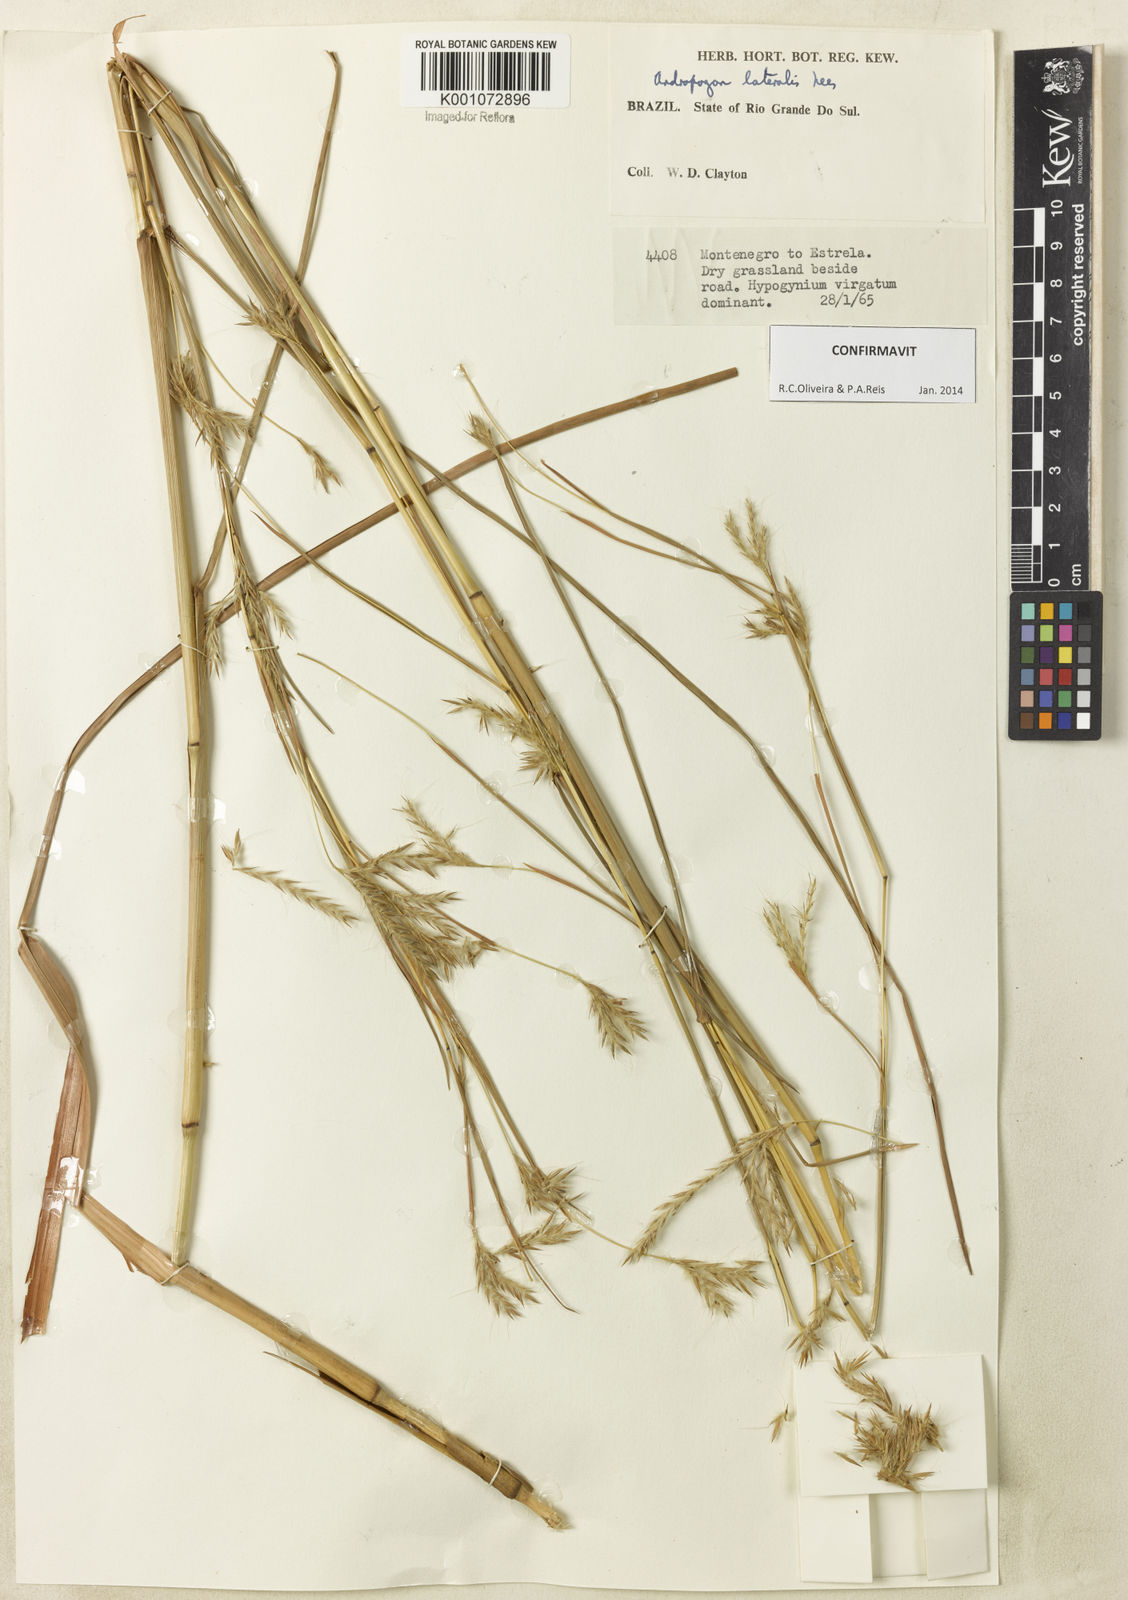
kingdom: Plantae
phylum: Tracheophyta
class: Liliopsida
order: Poales
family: Poaceae
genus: Andropogon
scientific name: Andropogon lateralis
